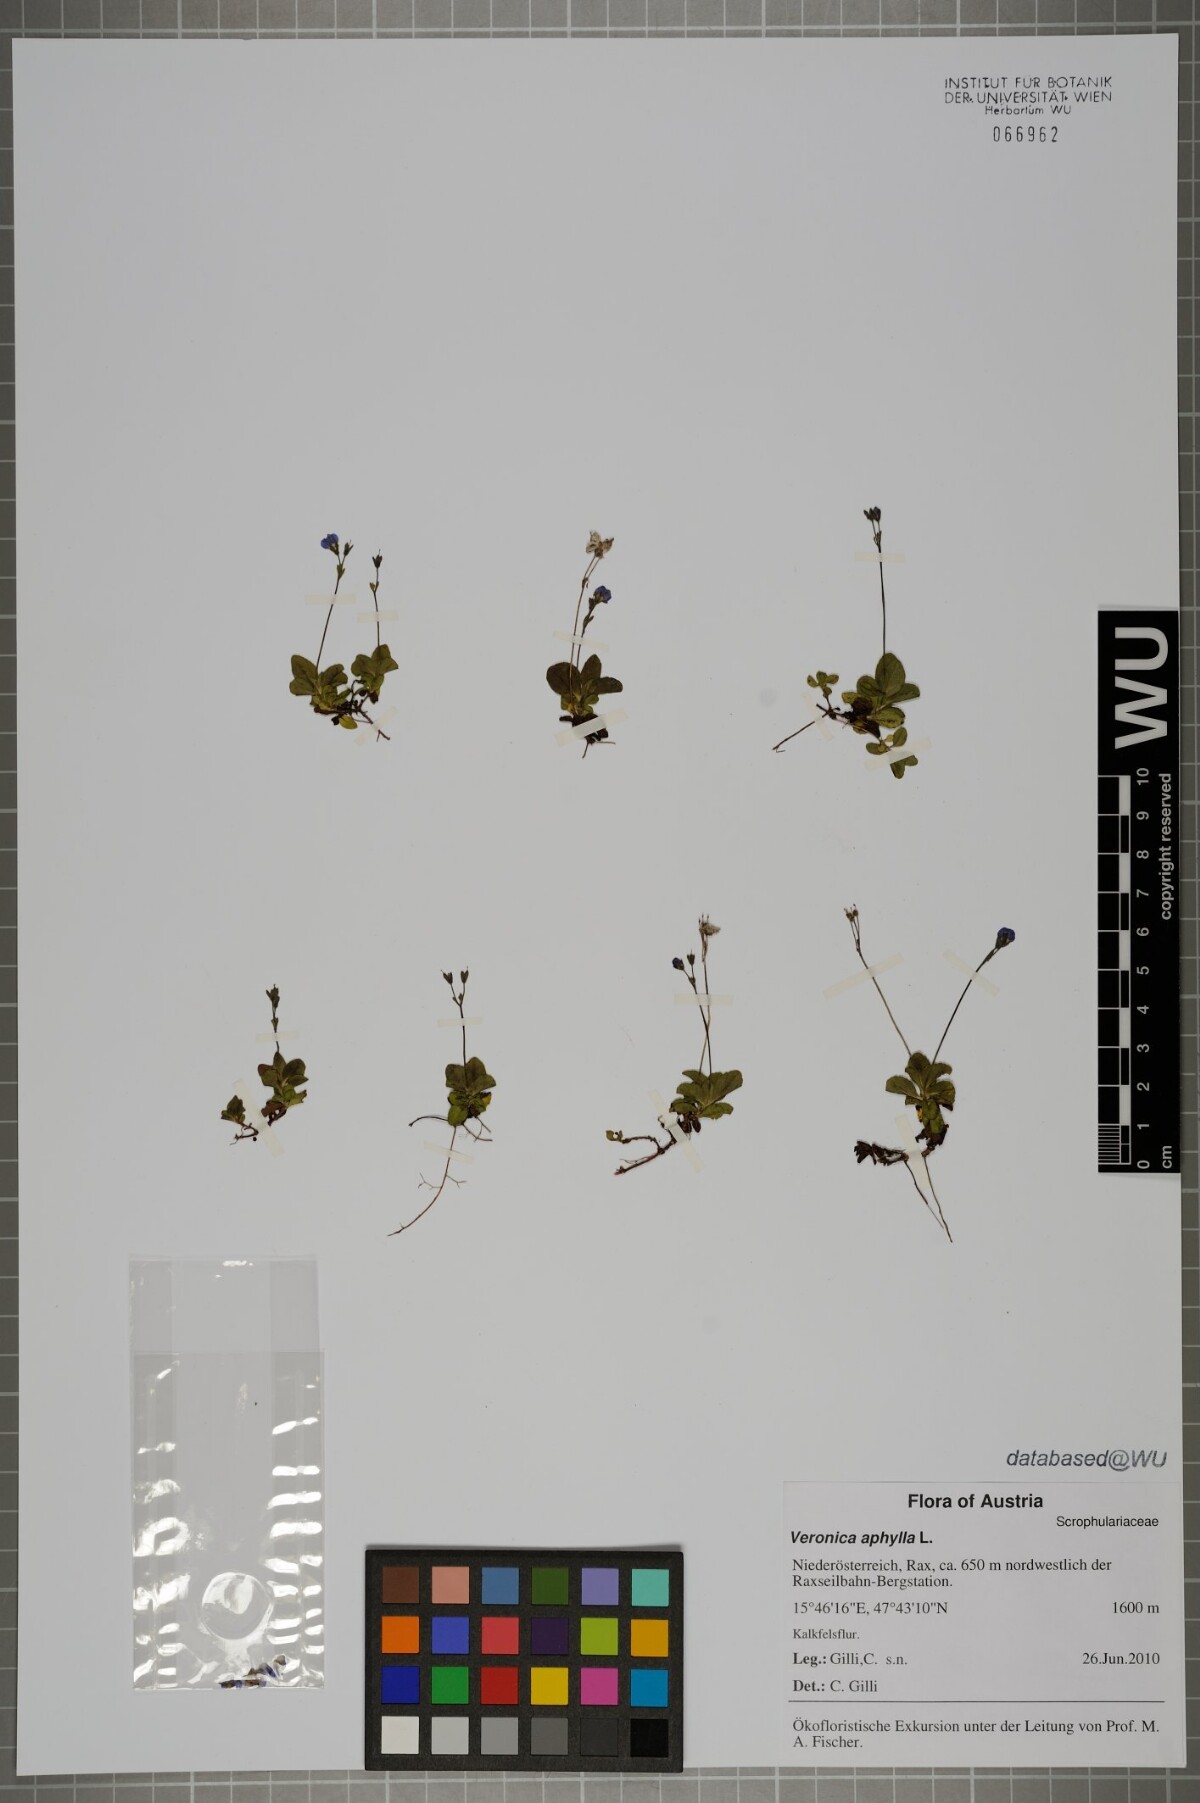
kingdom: Plantae
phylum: Tracheophyta
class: Magnoliopsida
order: Lamiales
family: Plantaginaceae
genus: Veronica
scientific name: Veronica aphylla
